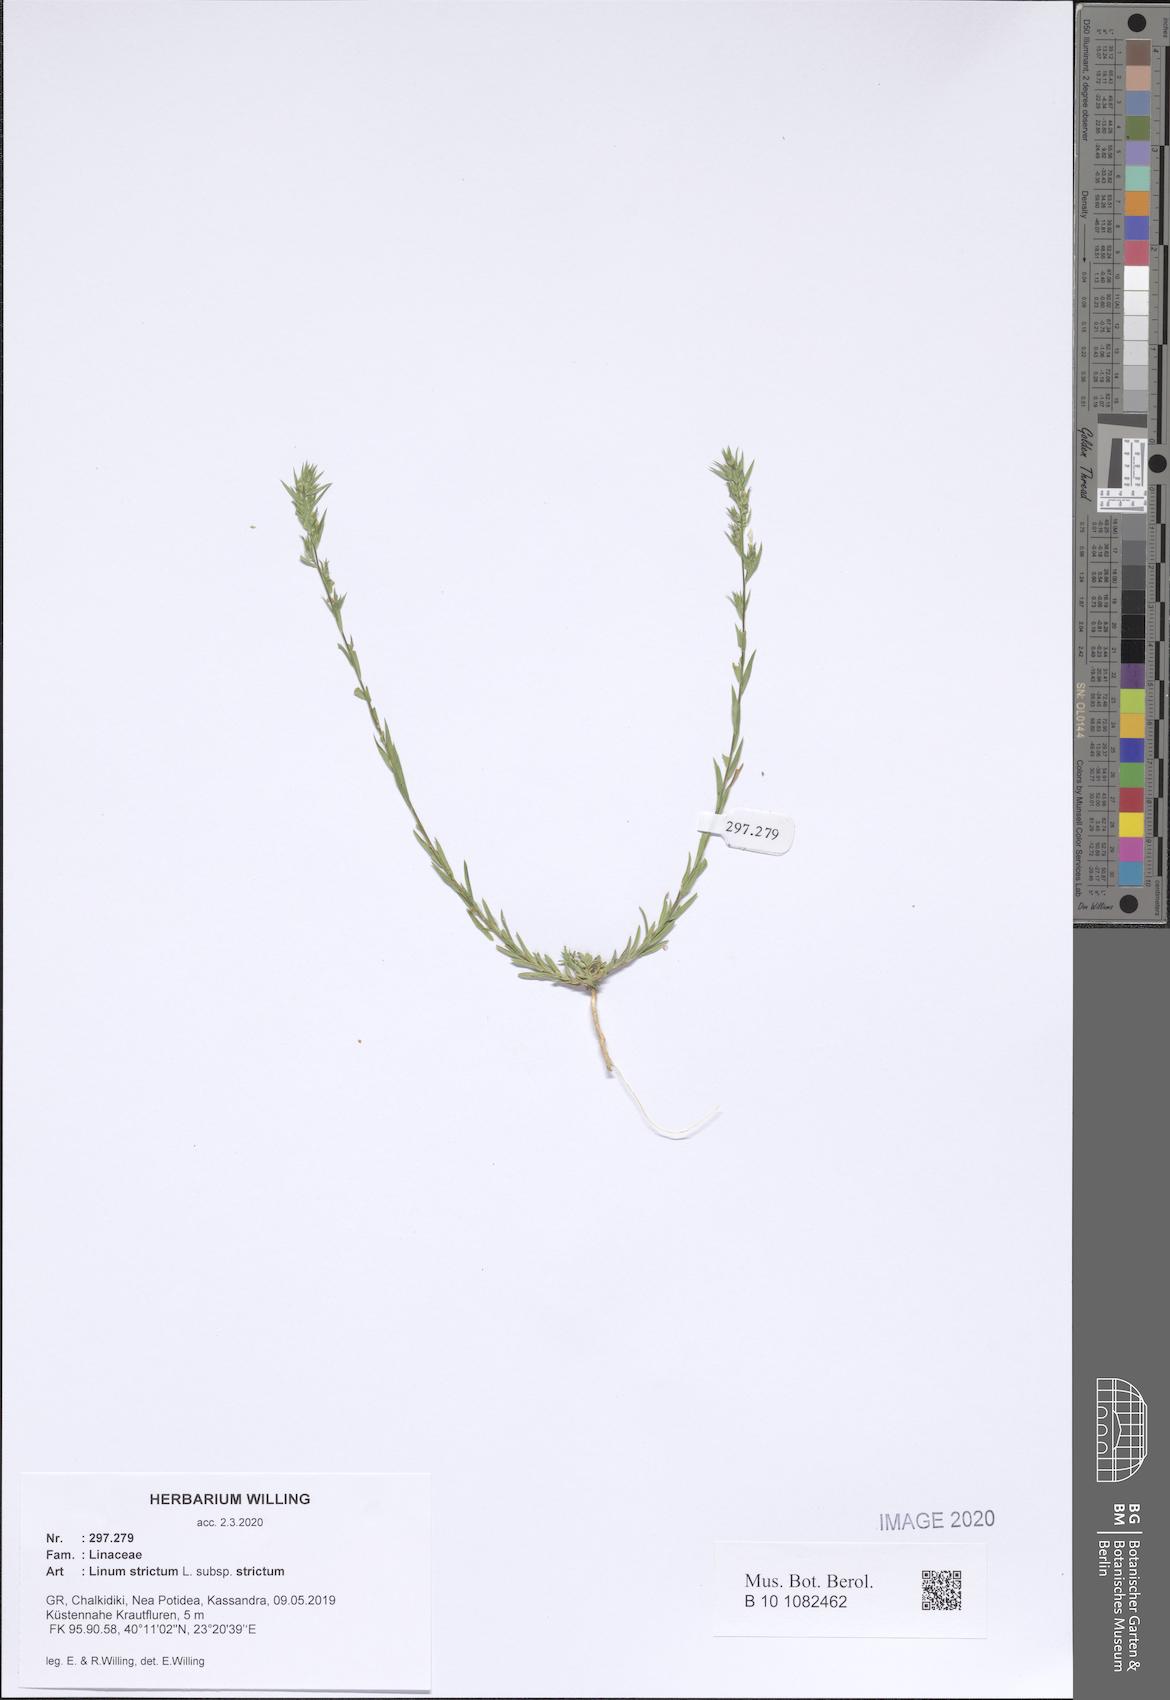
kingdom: Plantae
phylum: Tracheophyta
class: Magnoliopsida
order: Malpighiales
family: Linaceae
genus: Linum
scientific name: Linum strictum
